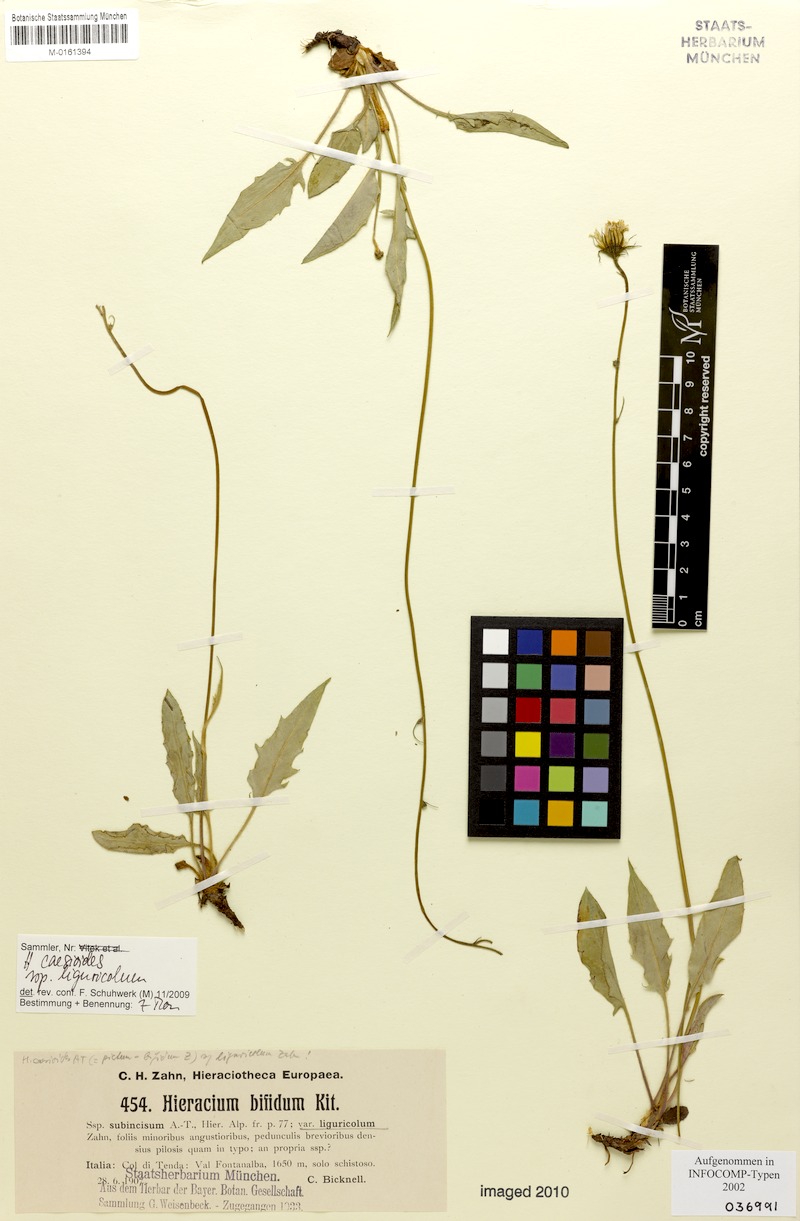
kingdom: Plantae
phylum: Tracheophyta
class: Magnoliopsida
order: Asterales
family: Asteraceae
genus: Hieracium
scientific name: Hieracium caesioides
